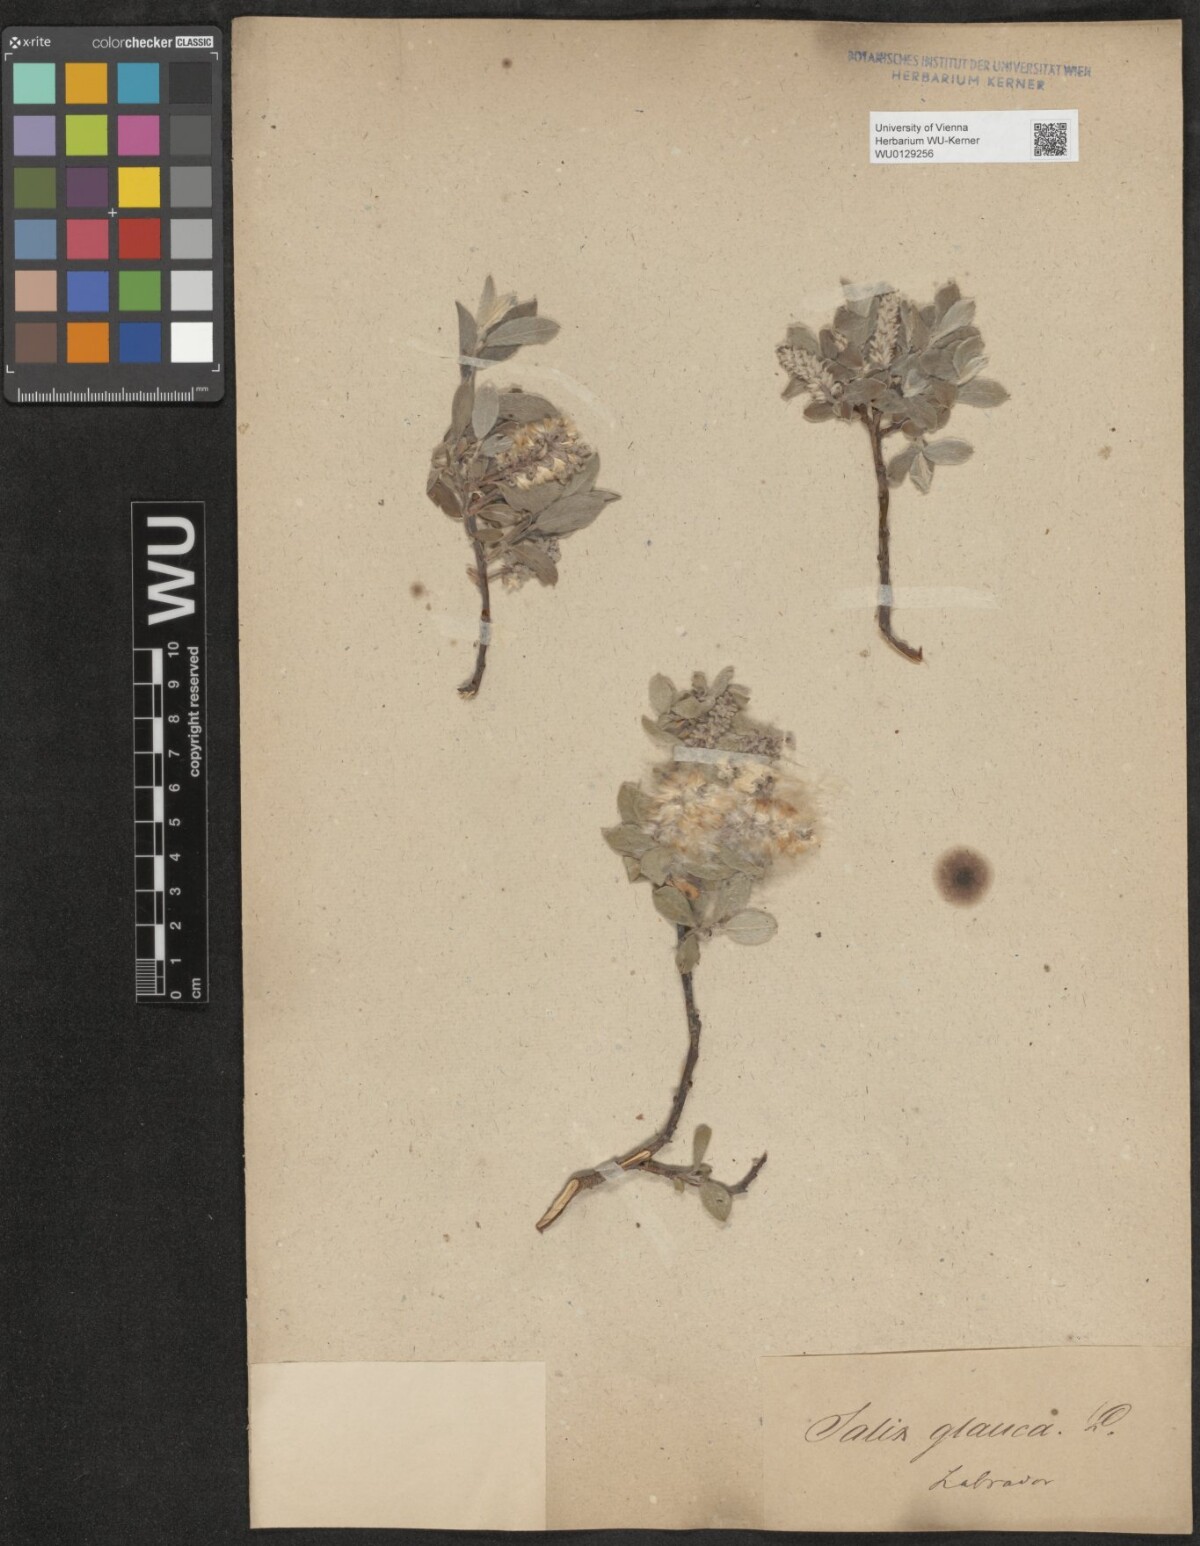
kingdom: Plantae
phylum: Tracheophyta
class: Magnoliopsida
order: Malpighiales
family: Salicaceae
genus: Salix
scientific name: Salix glauca
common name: Glaucous willow
